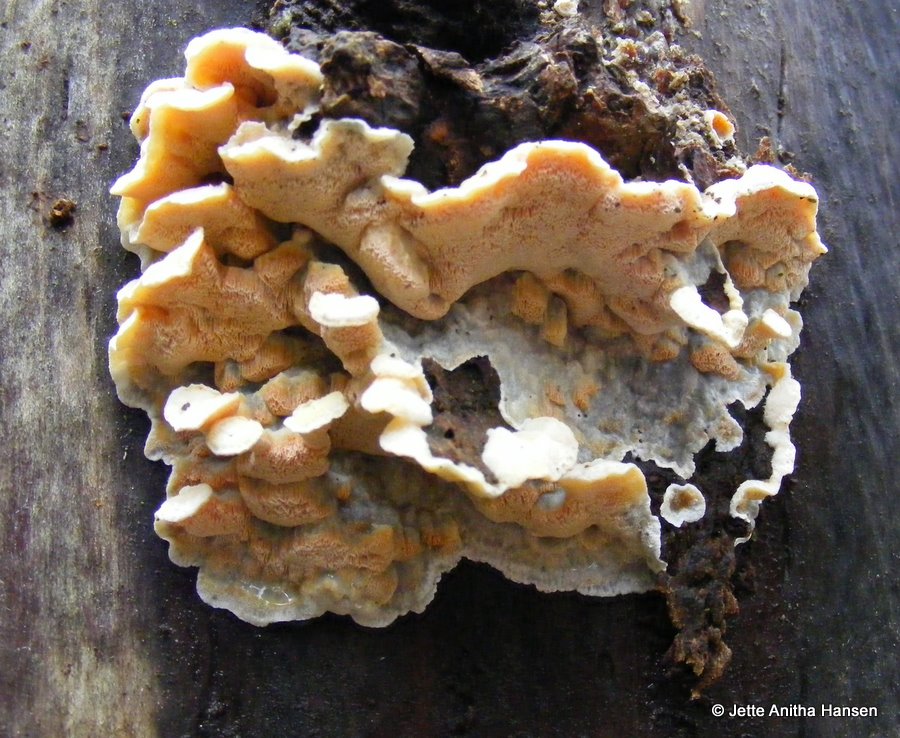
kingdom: Fungi
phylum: Basidiomycota
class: Agaricomycetes
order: Polyporales
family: Incrustoporiaceae
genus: Skeletocutis
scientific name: Skeletocutis amorpha
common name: orange krystalporesvamp
